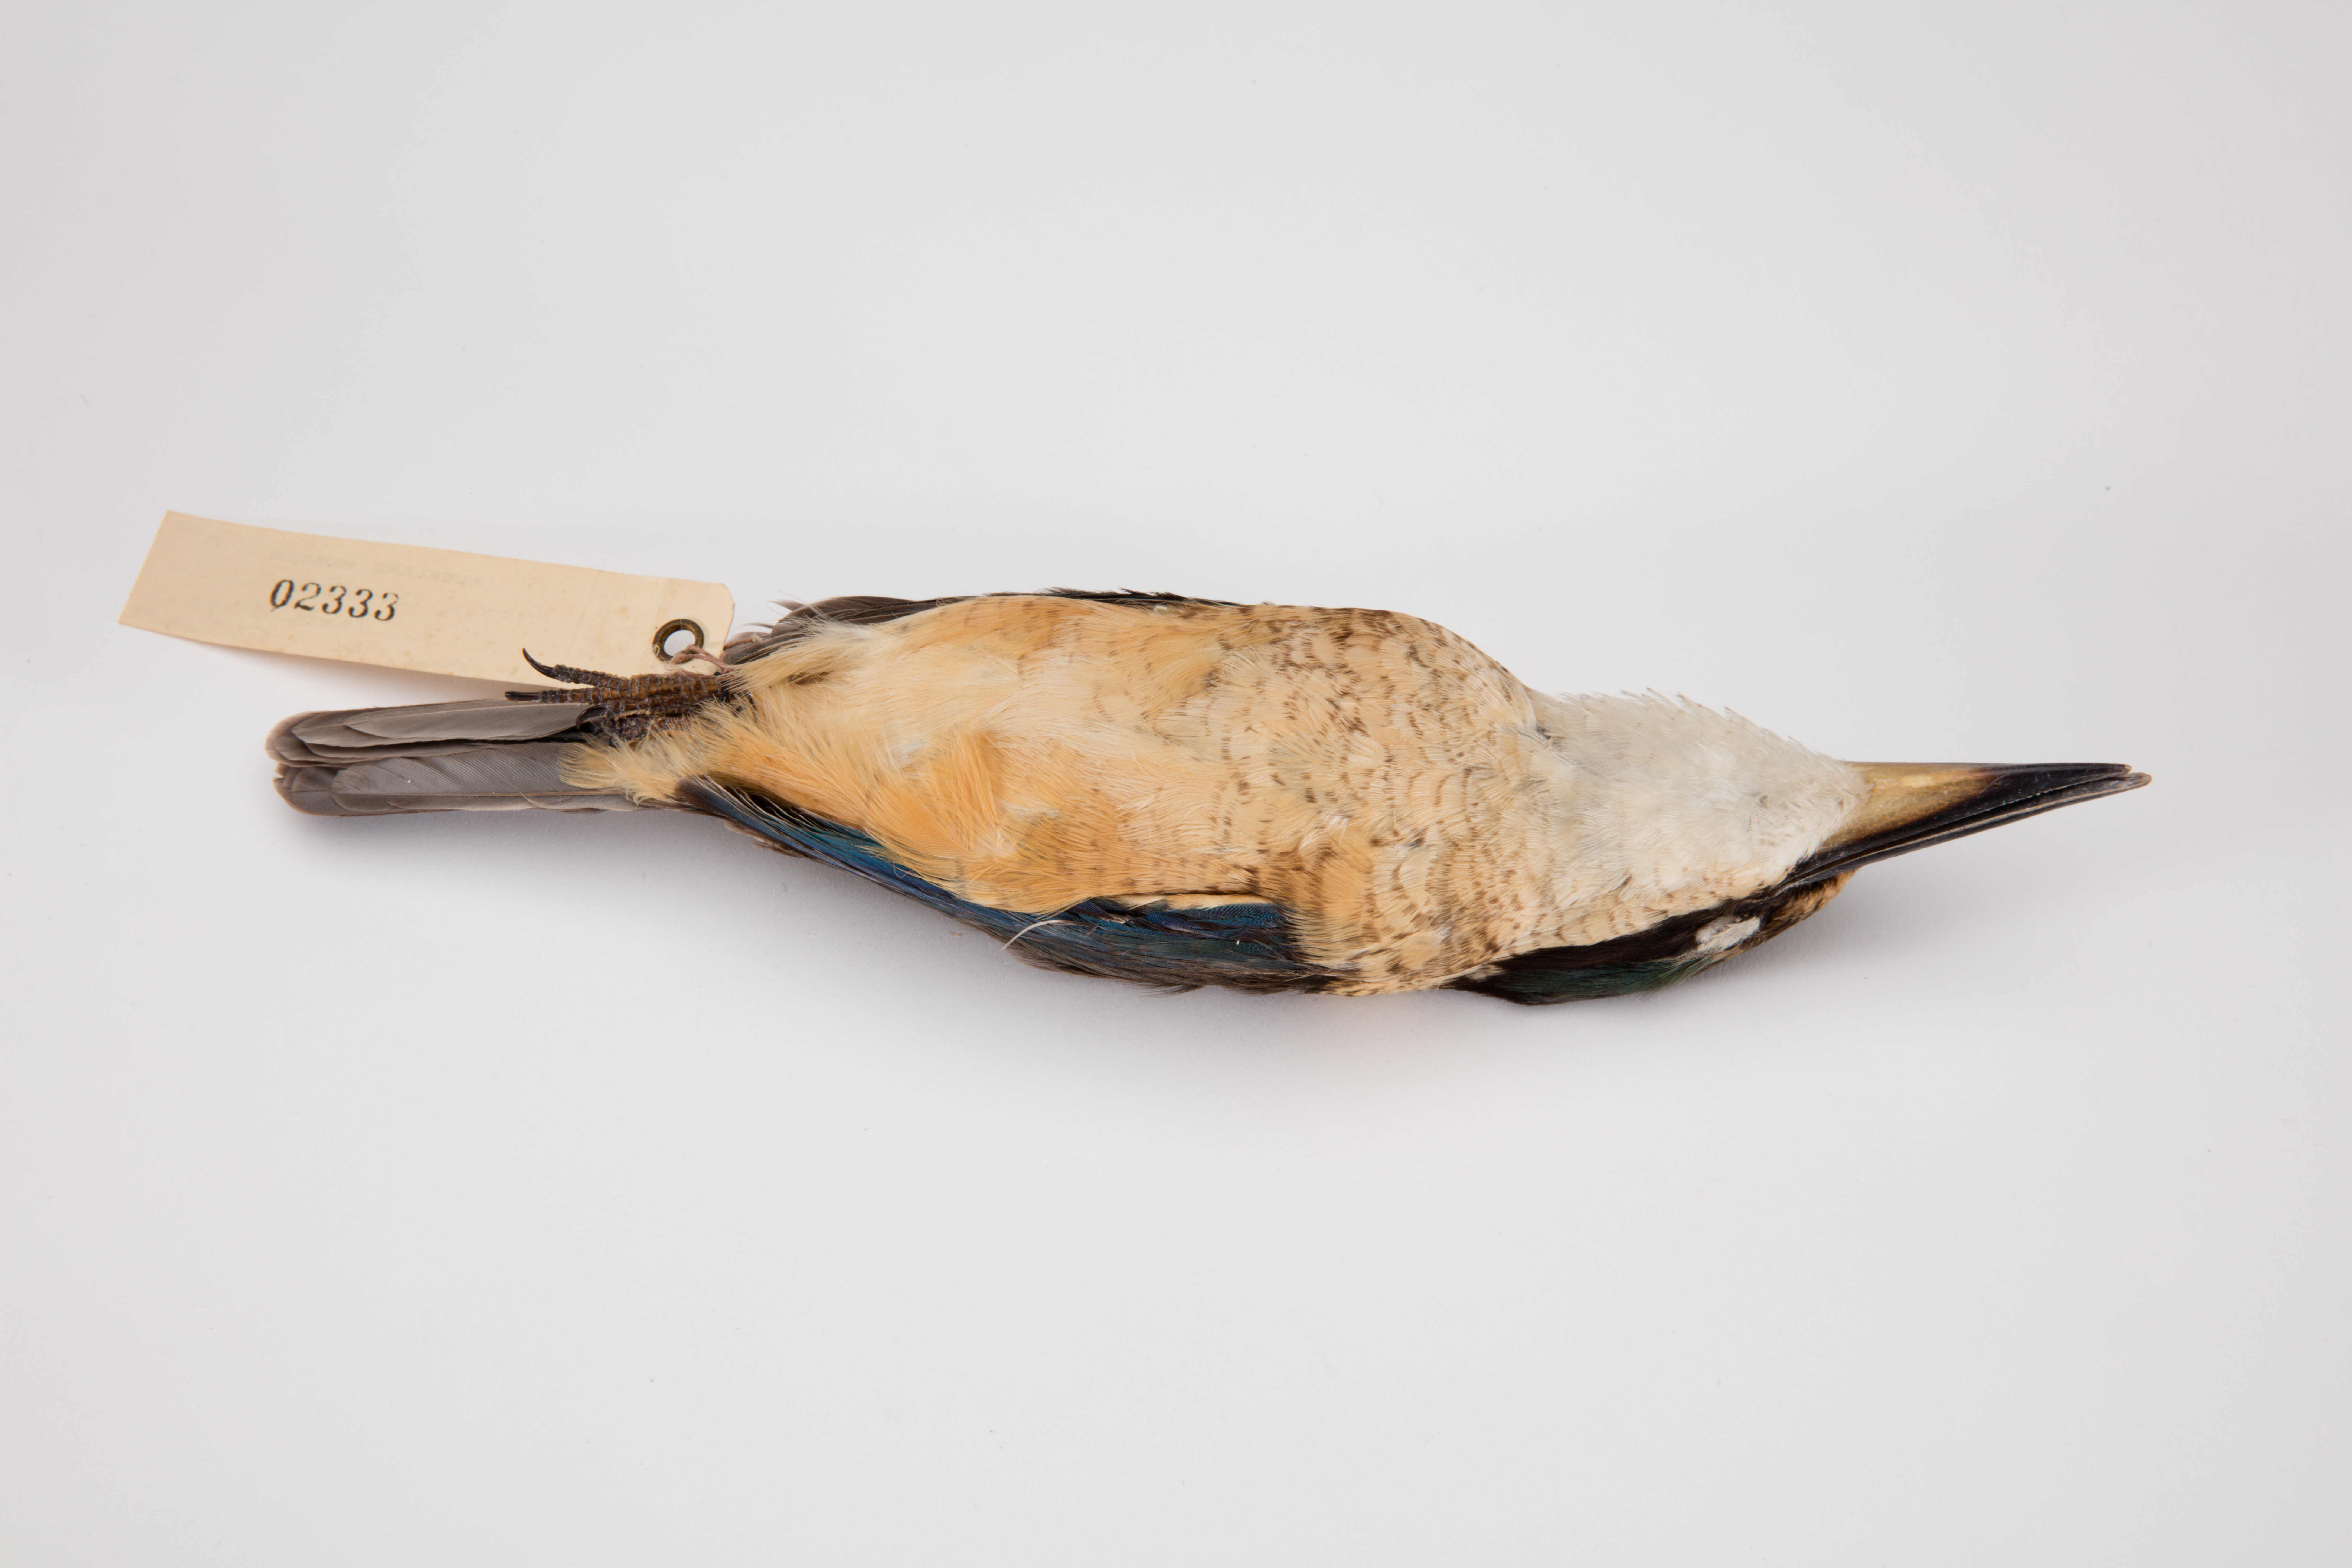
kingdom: Animalia
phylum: Chordata
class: Aves
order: Coraciiformes
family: Alcedinidae
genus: Todiramphus
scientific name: Todiramphus sanctus
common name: Sacred kingfisher
